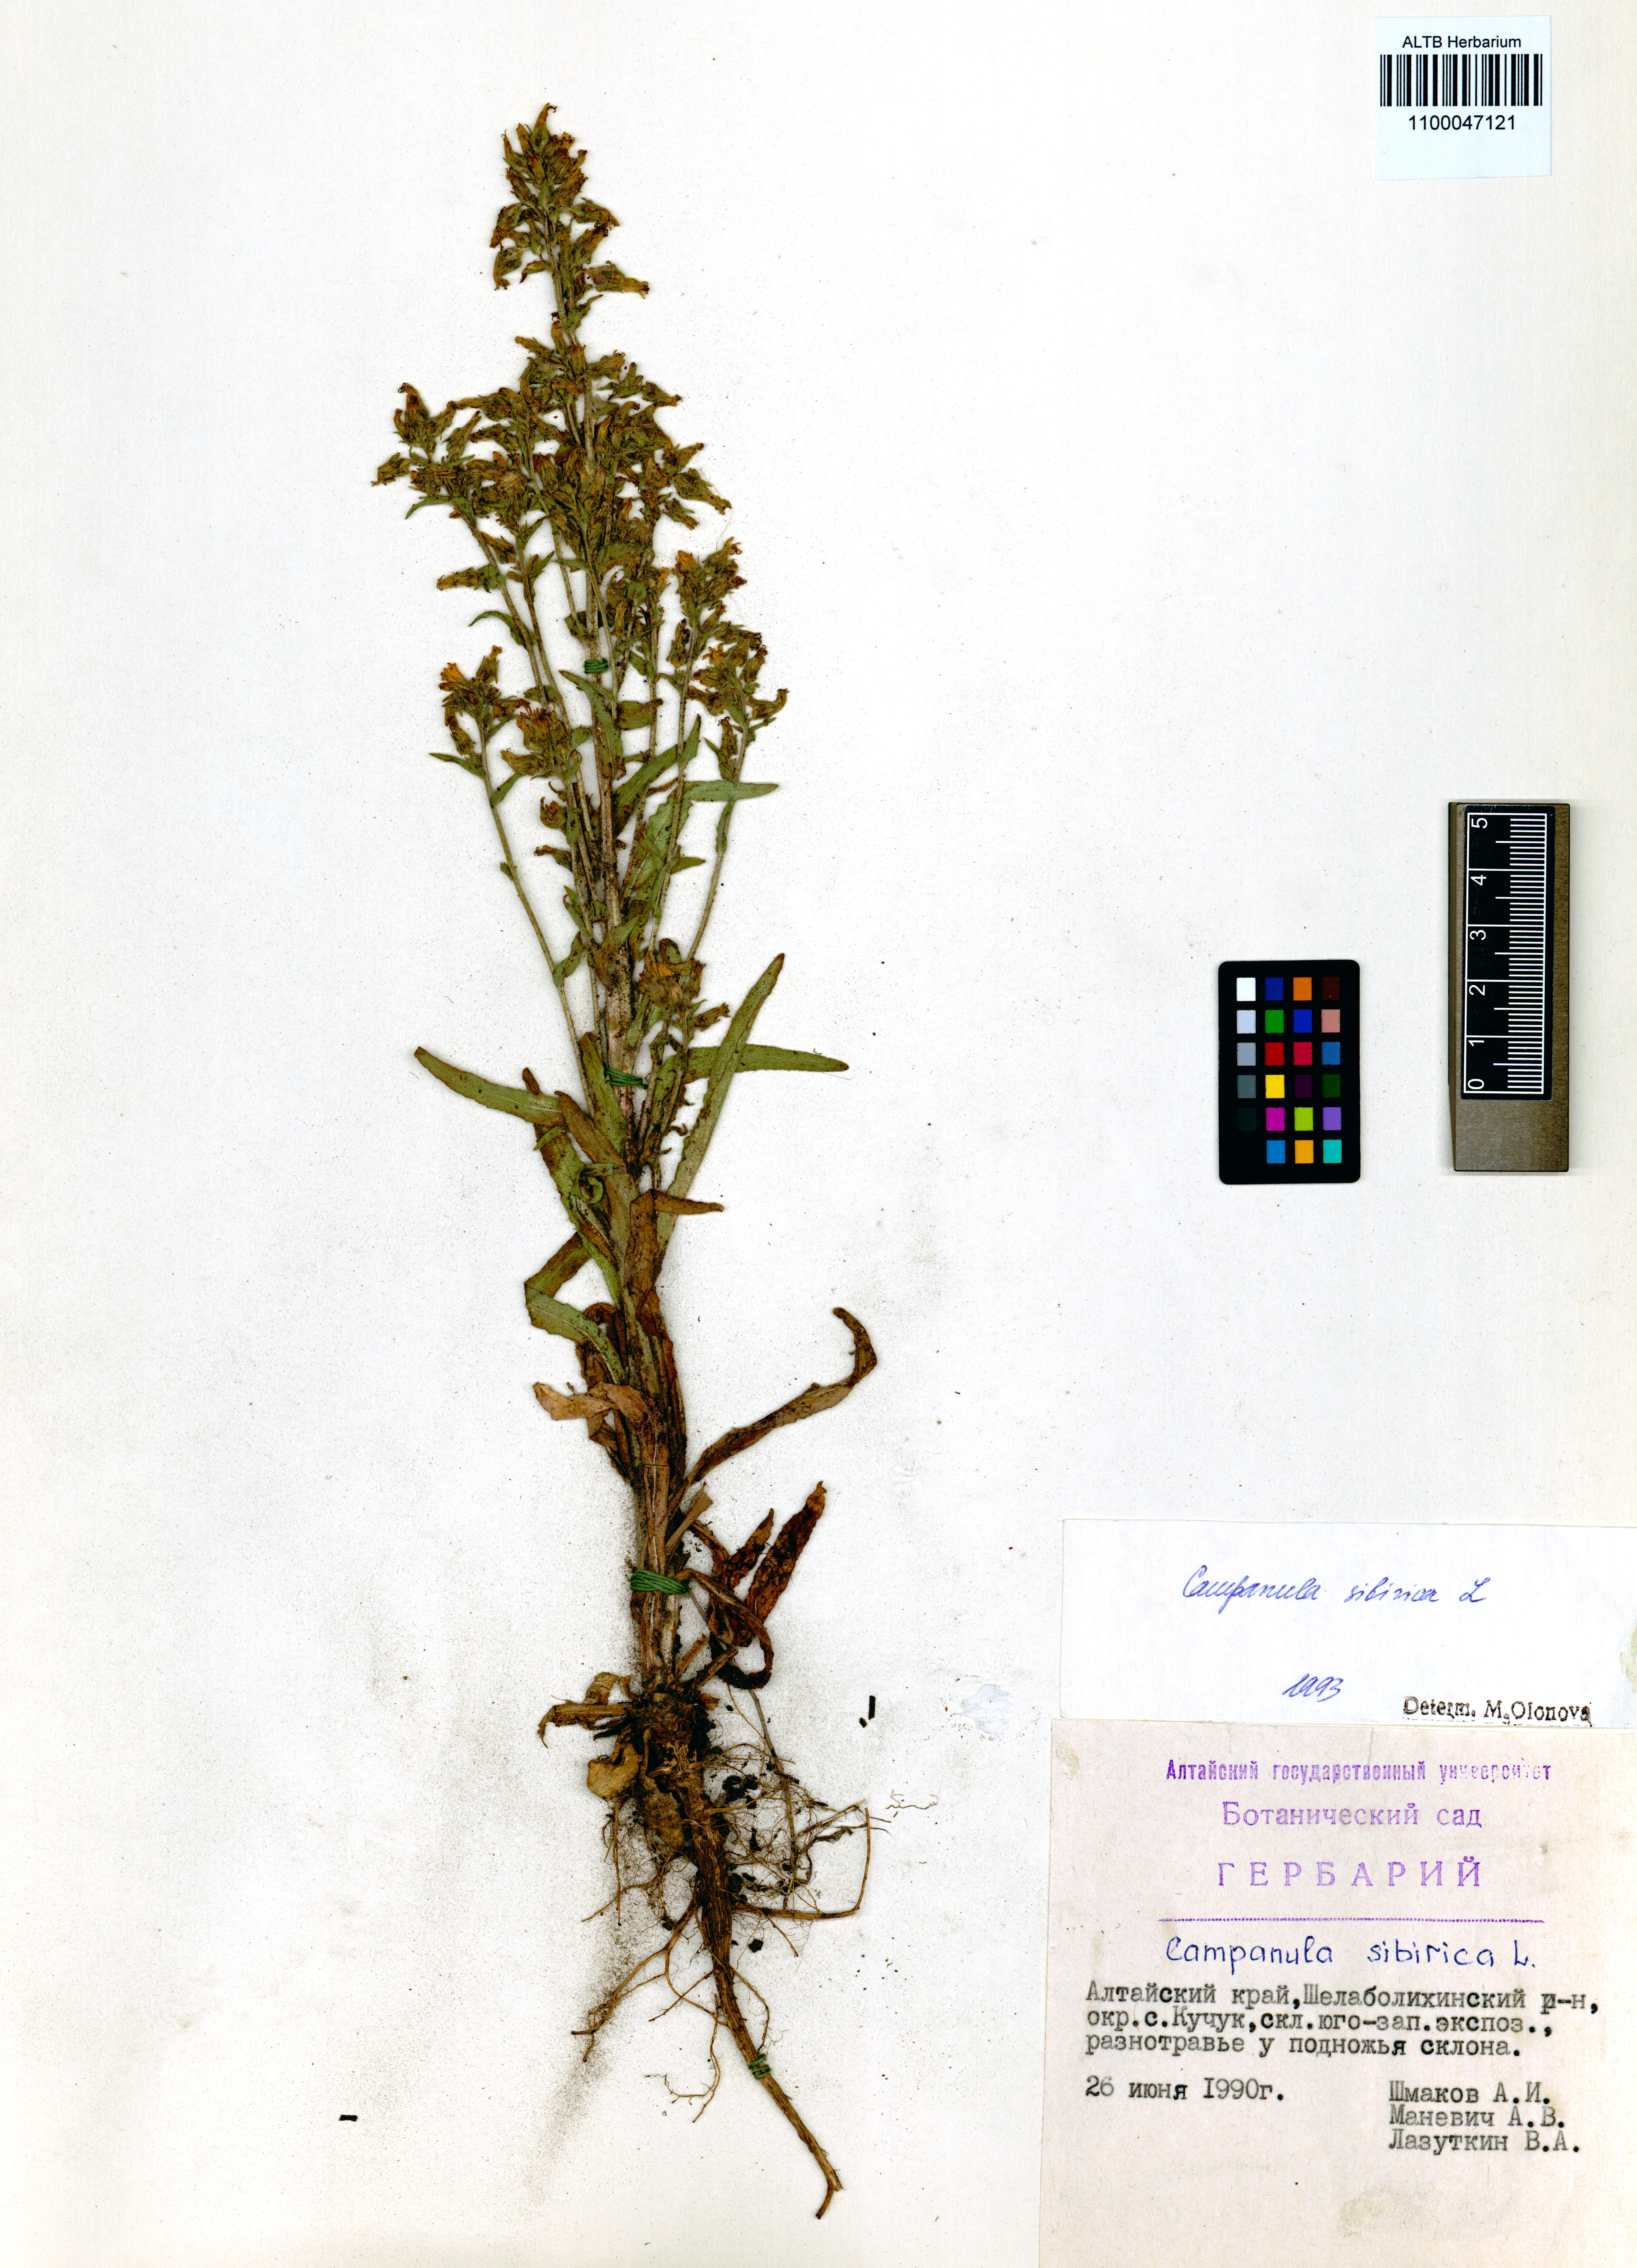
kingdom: Plantae
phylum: Tracheophyta
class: Magnoliopsida
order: Asterales
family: Campanulaceae
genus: Campanula
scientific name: Campanula sibirica
